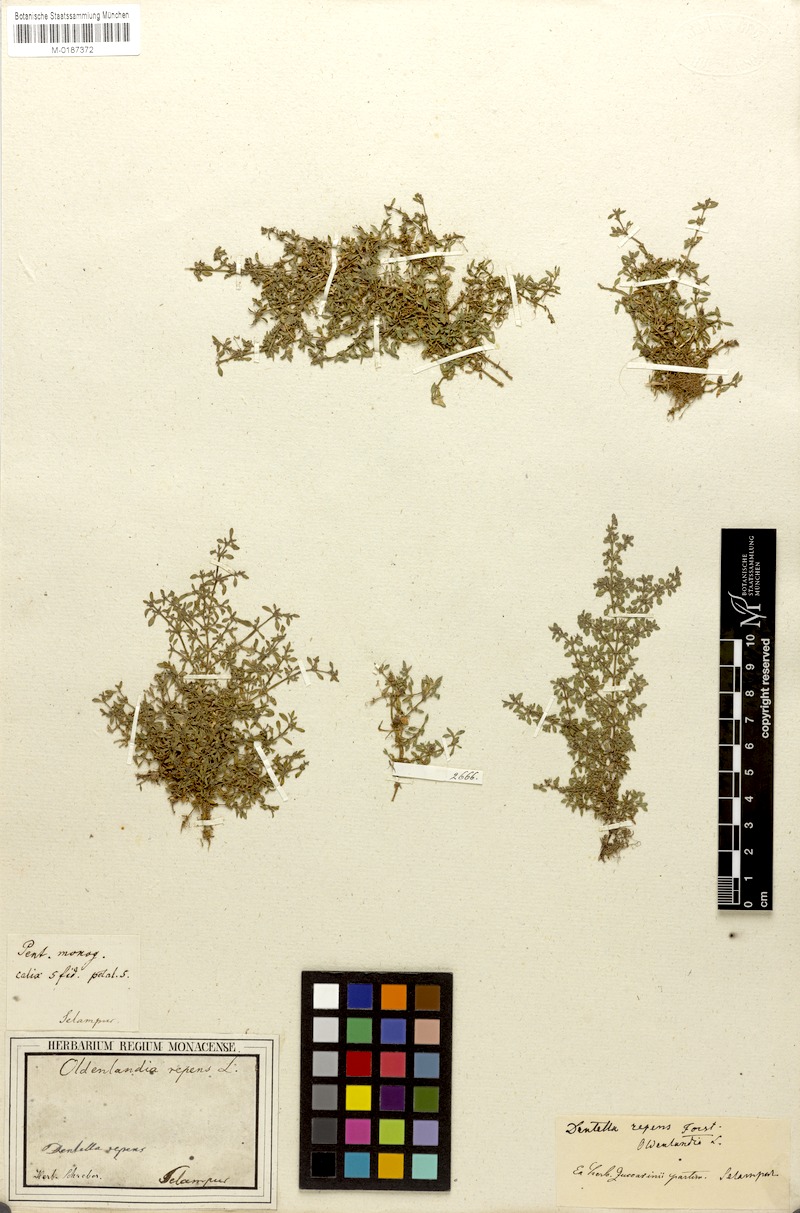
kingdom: Plantae
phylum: Tracheophyta
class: Magnoliopsida
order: Gentianales
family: Rubiaceae
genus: Dentella
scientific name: Dentella repens
